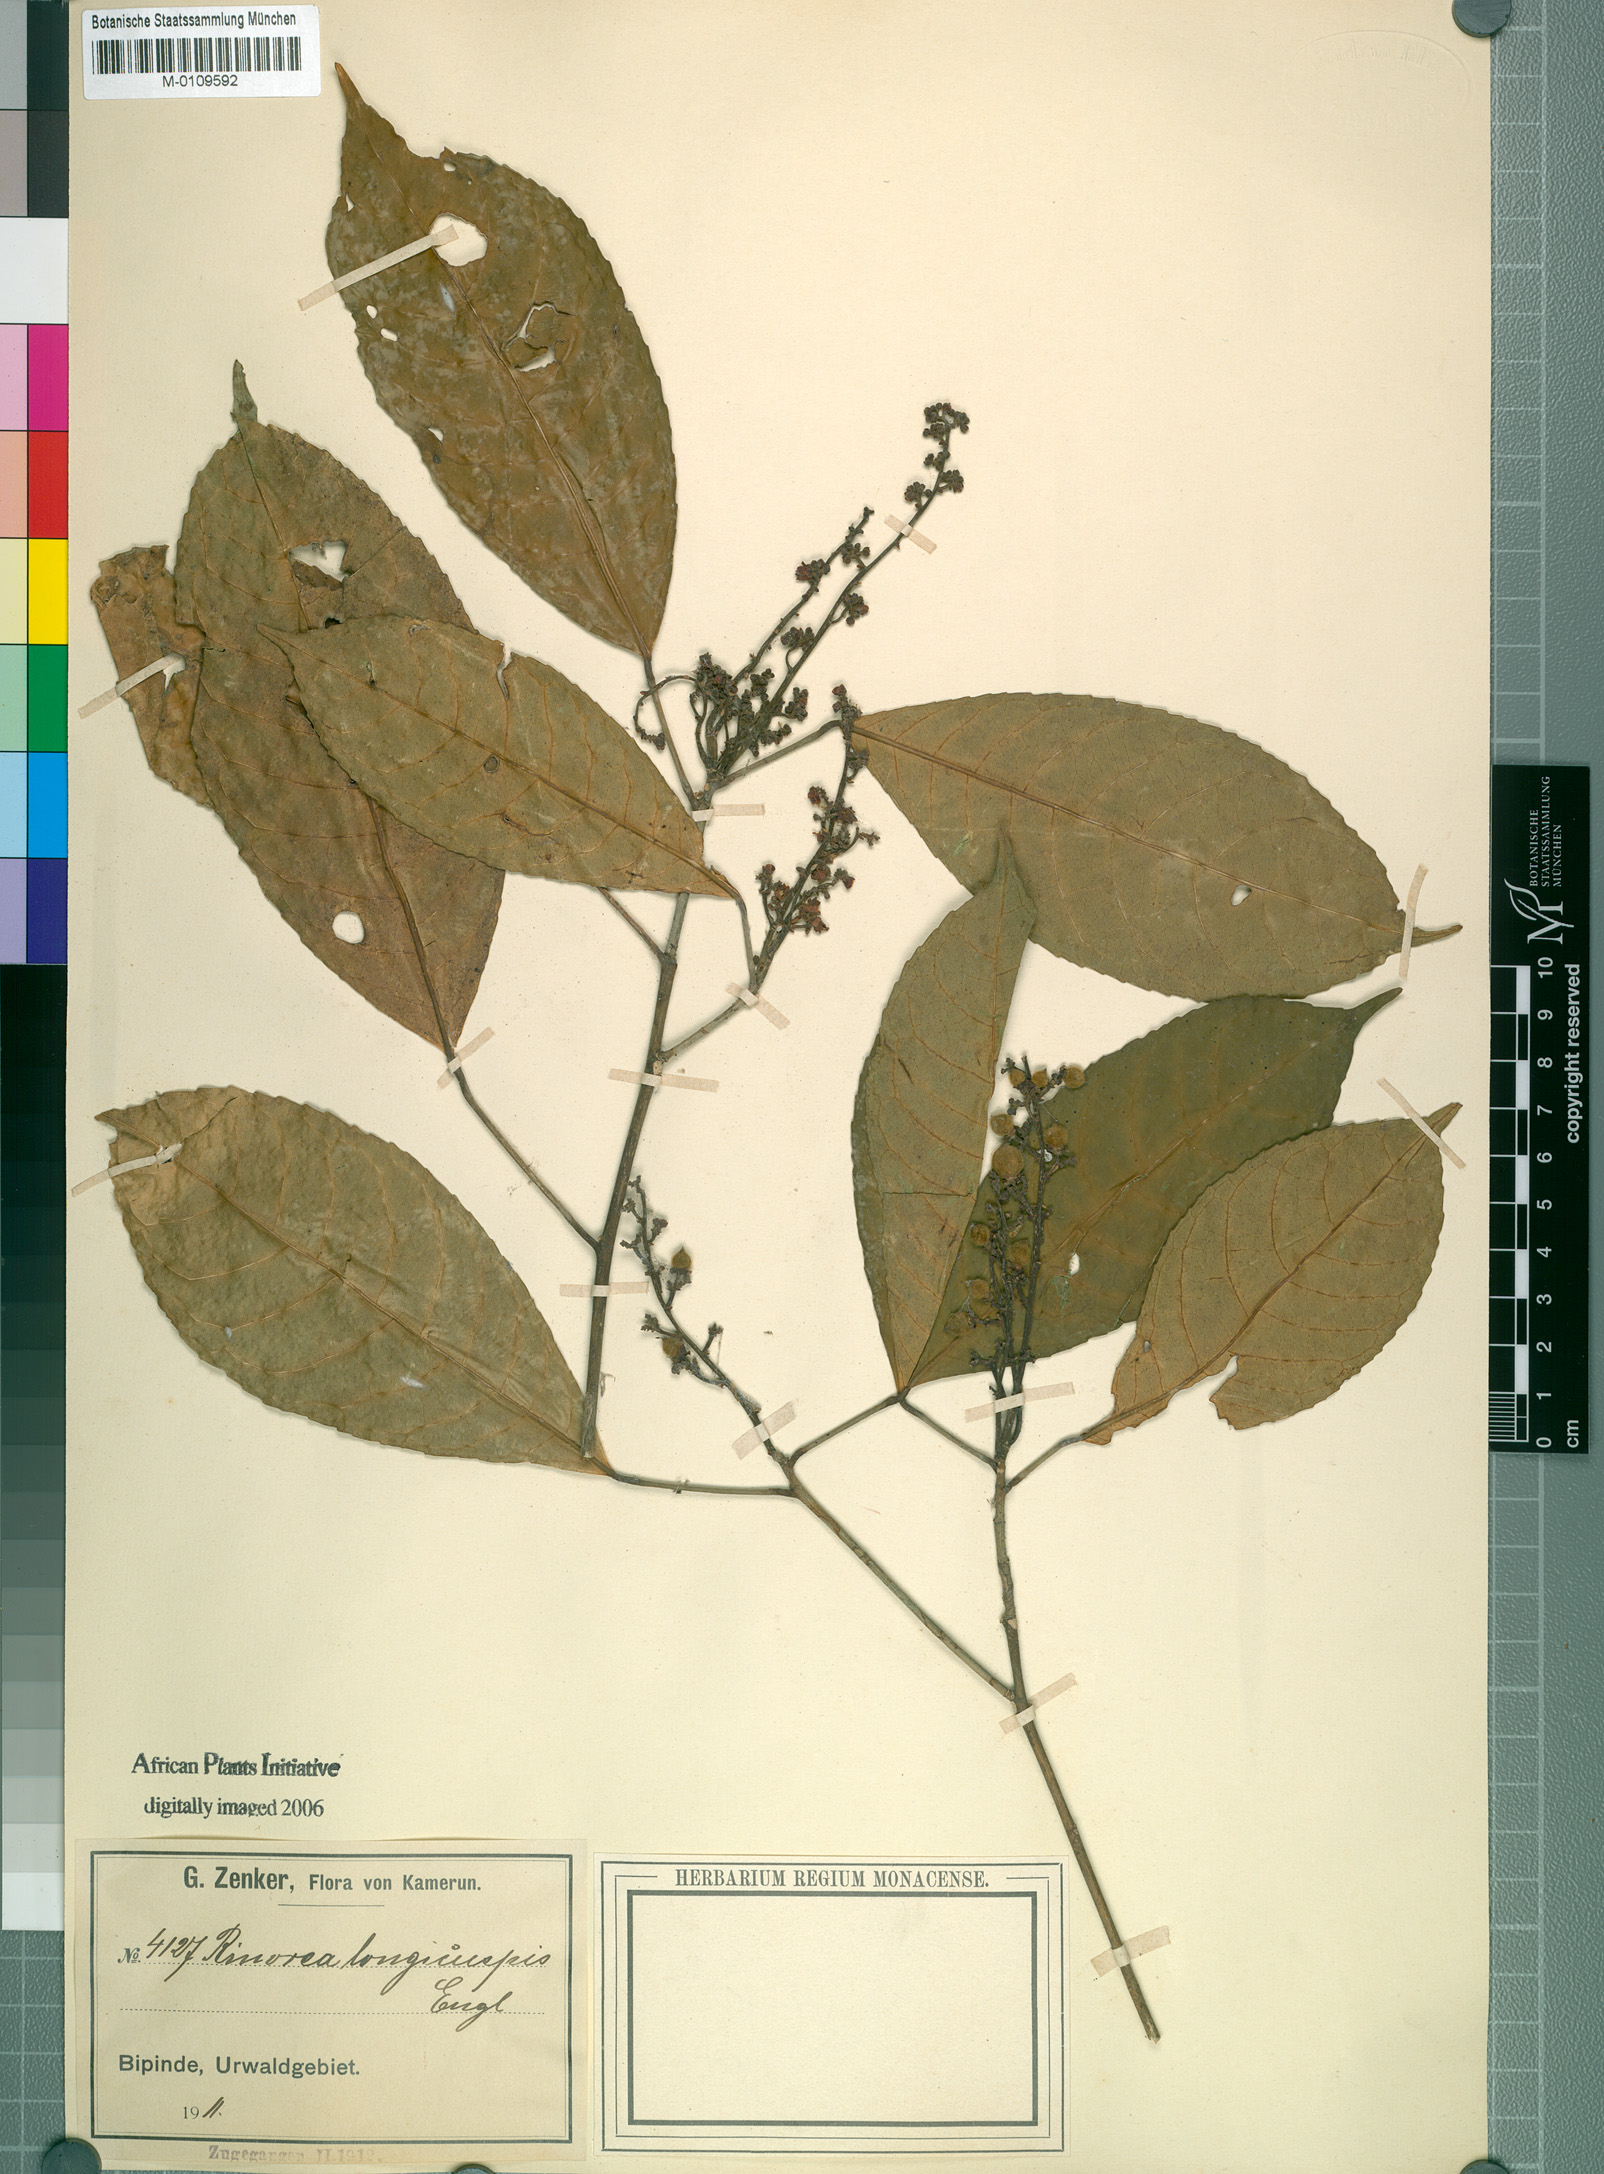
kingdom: Plantae
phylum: Tracheophyta
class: Magnoliopsida
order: Malpighiales
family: Violaceae
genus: Rinorea
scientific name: Rinorea welwitschii
